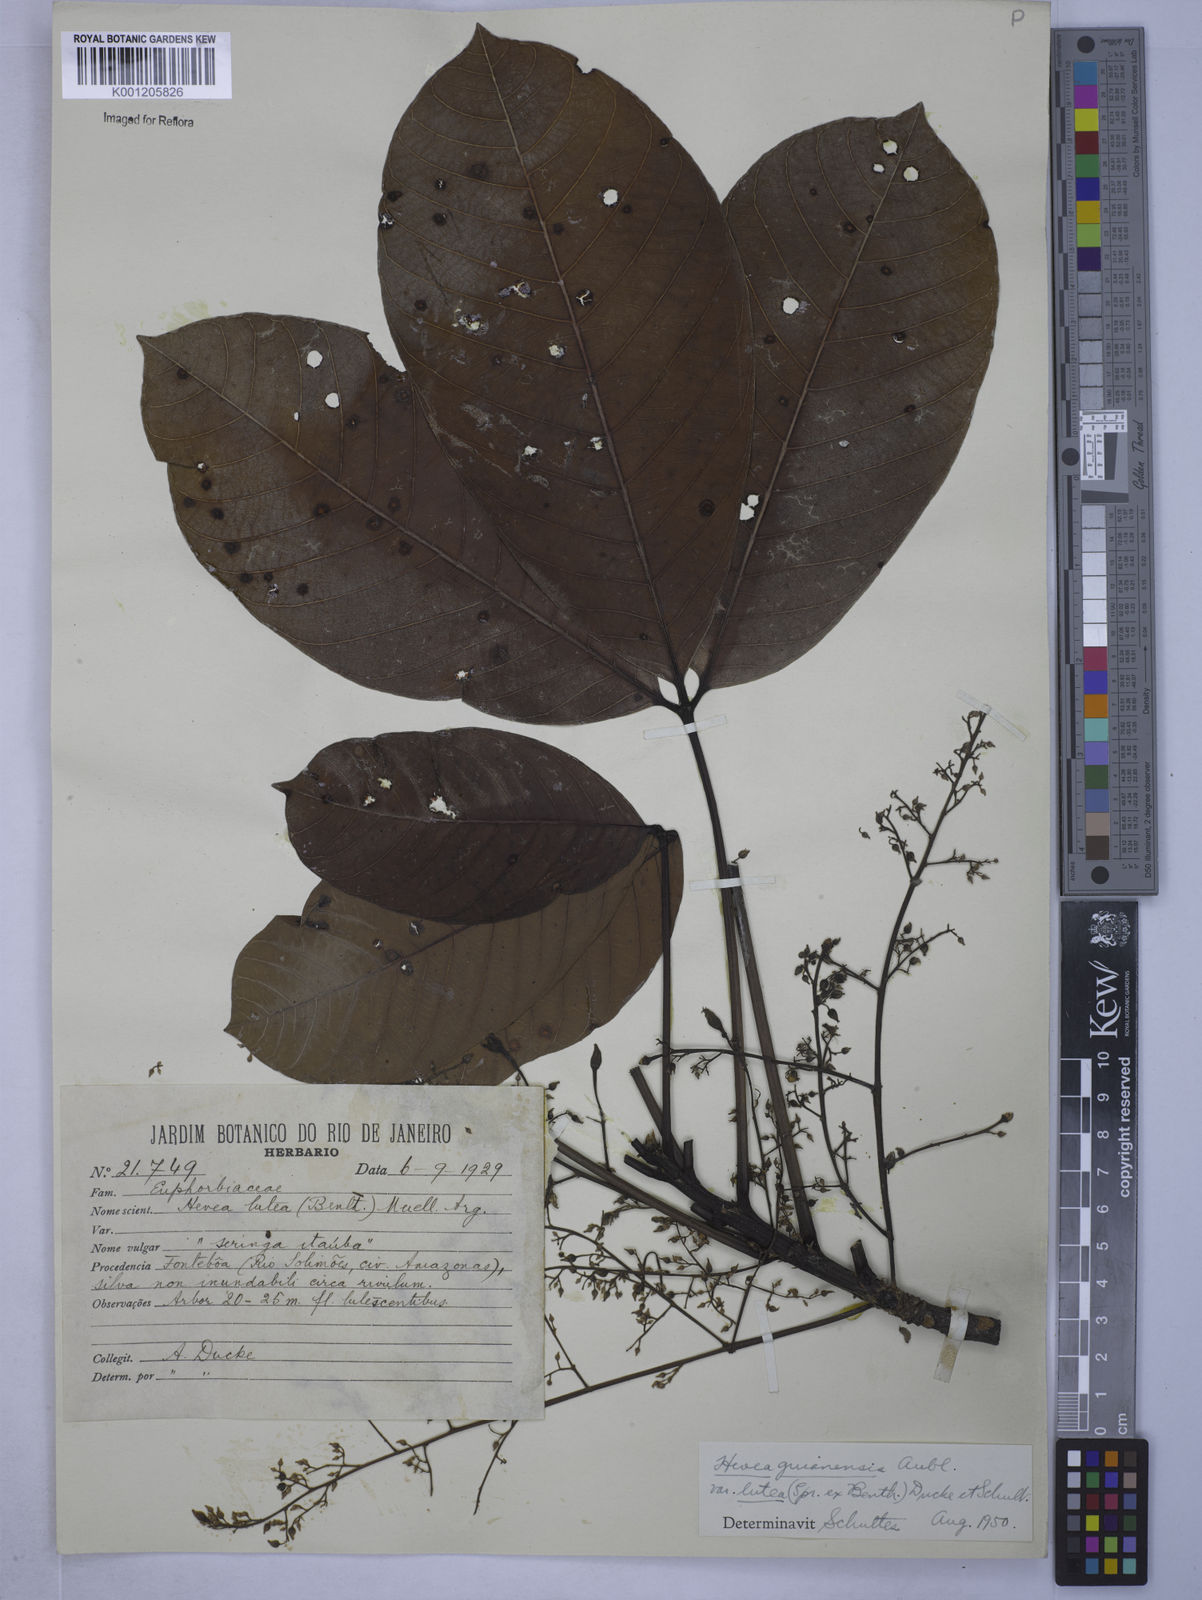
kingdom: Plantae
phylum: Tracheophyta
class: Magnoliopsida
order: Malpighiales
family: Euphorbiaceae
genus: Hevea
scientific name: Hevea guianensis
